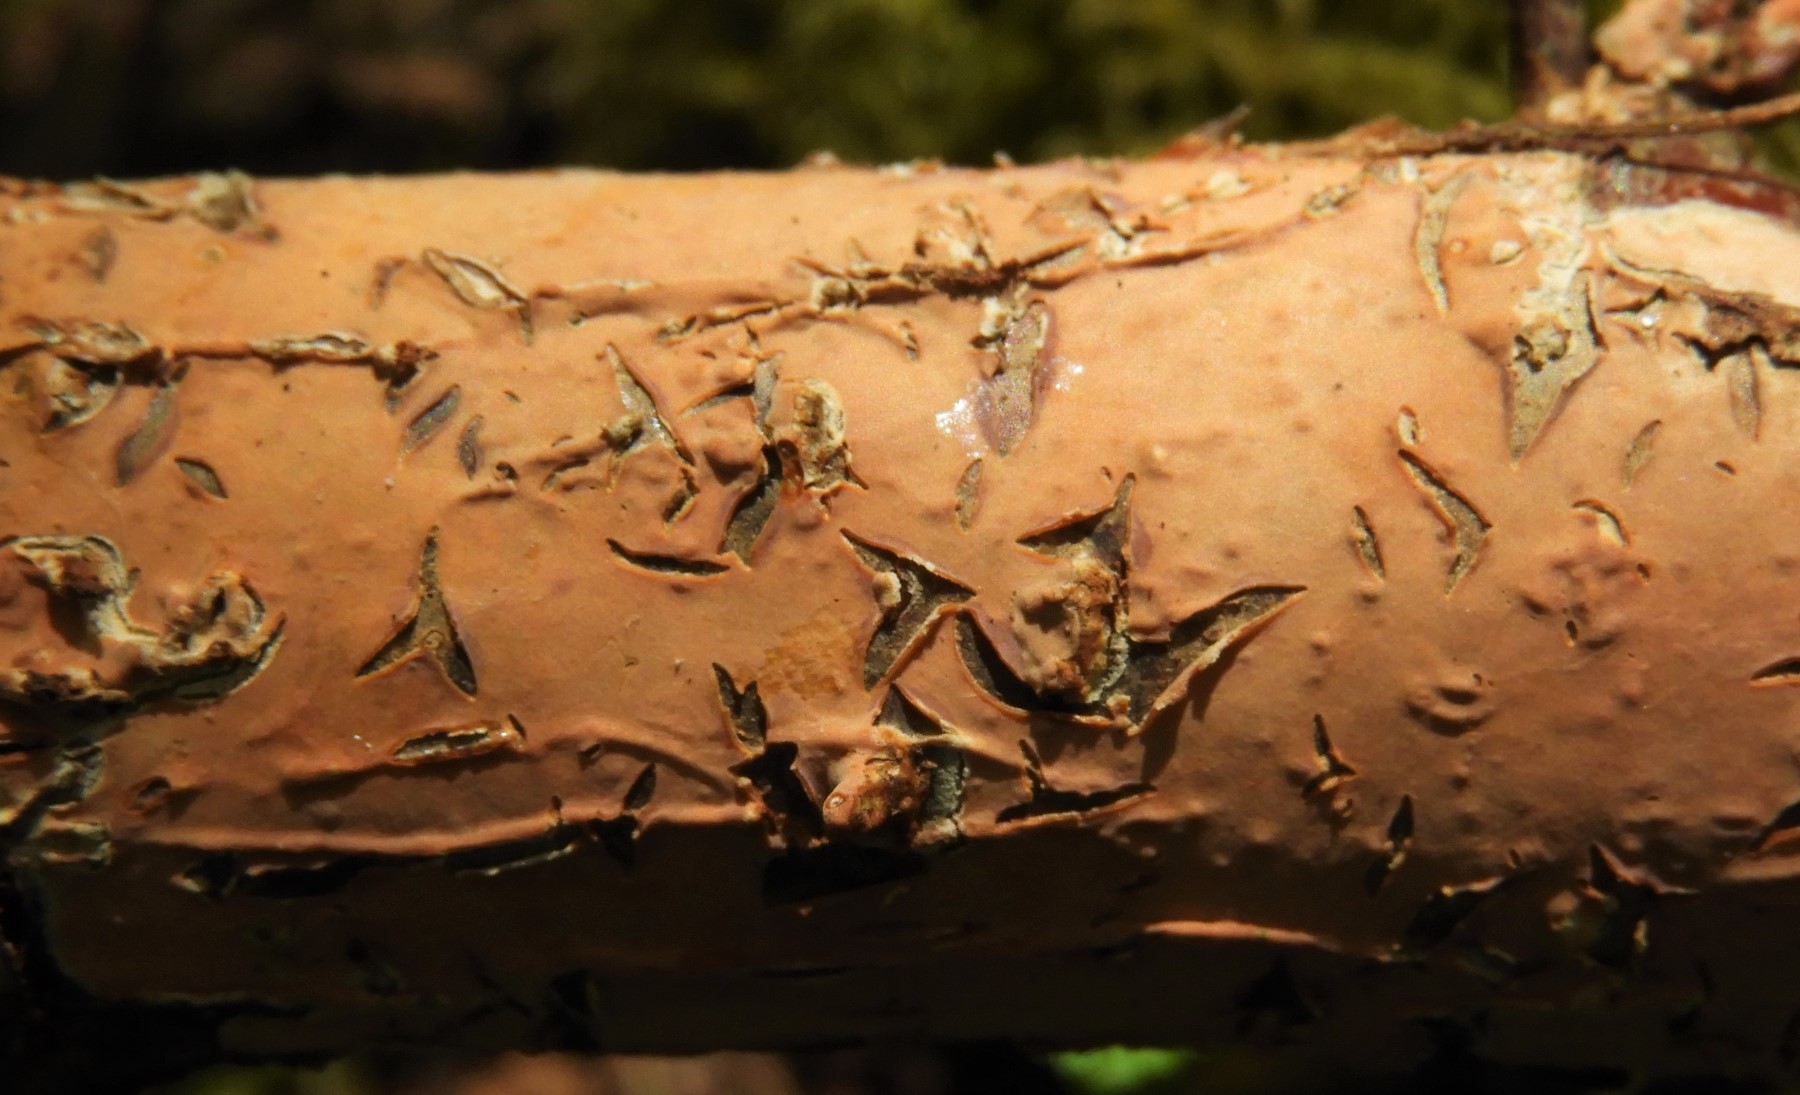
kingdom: Fungi
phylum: Basidiomycota
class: Agaricomycetes
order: Russulales
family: Peniophoraceae
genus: Peniophora
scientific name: Peniophora incarnata
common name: laksefarvet voksskind
